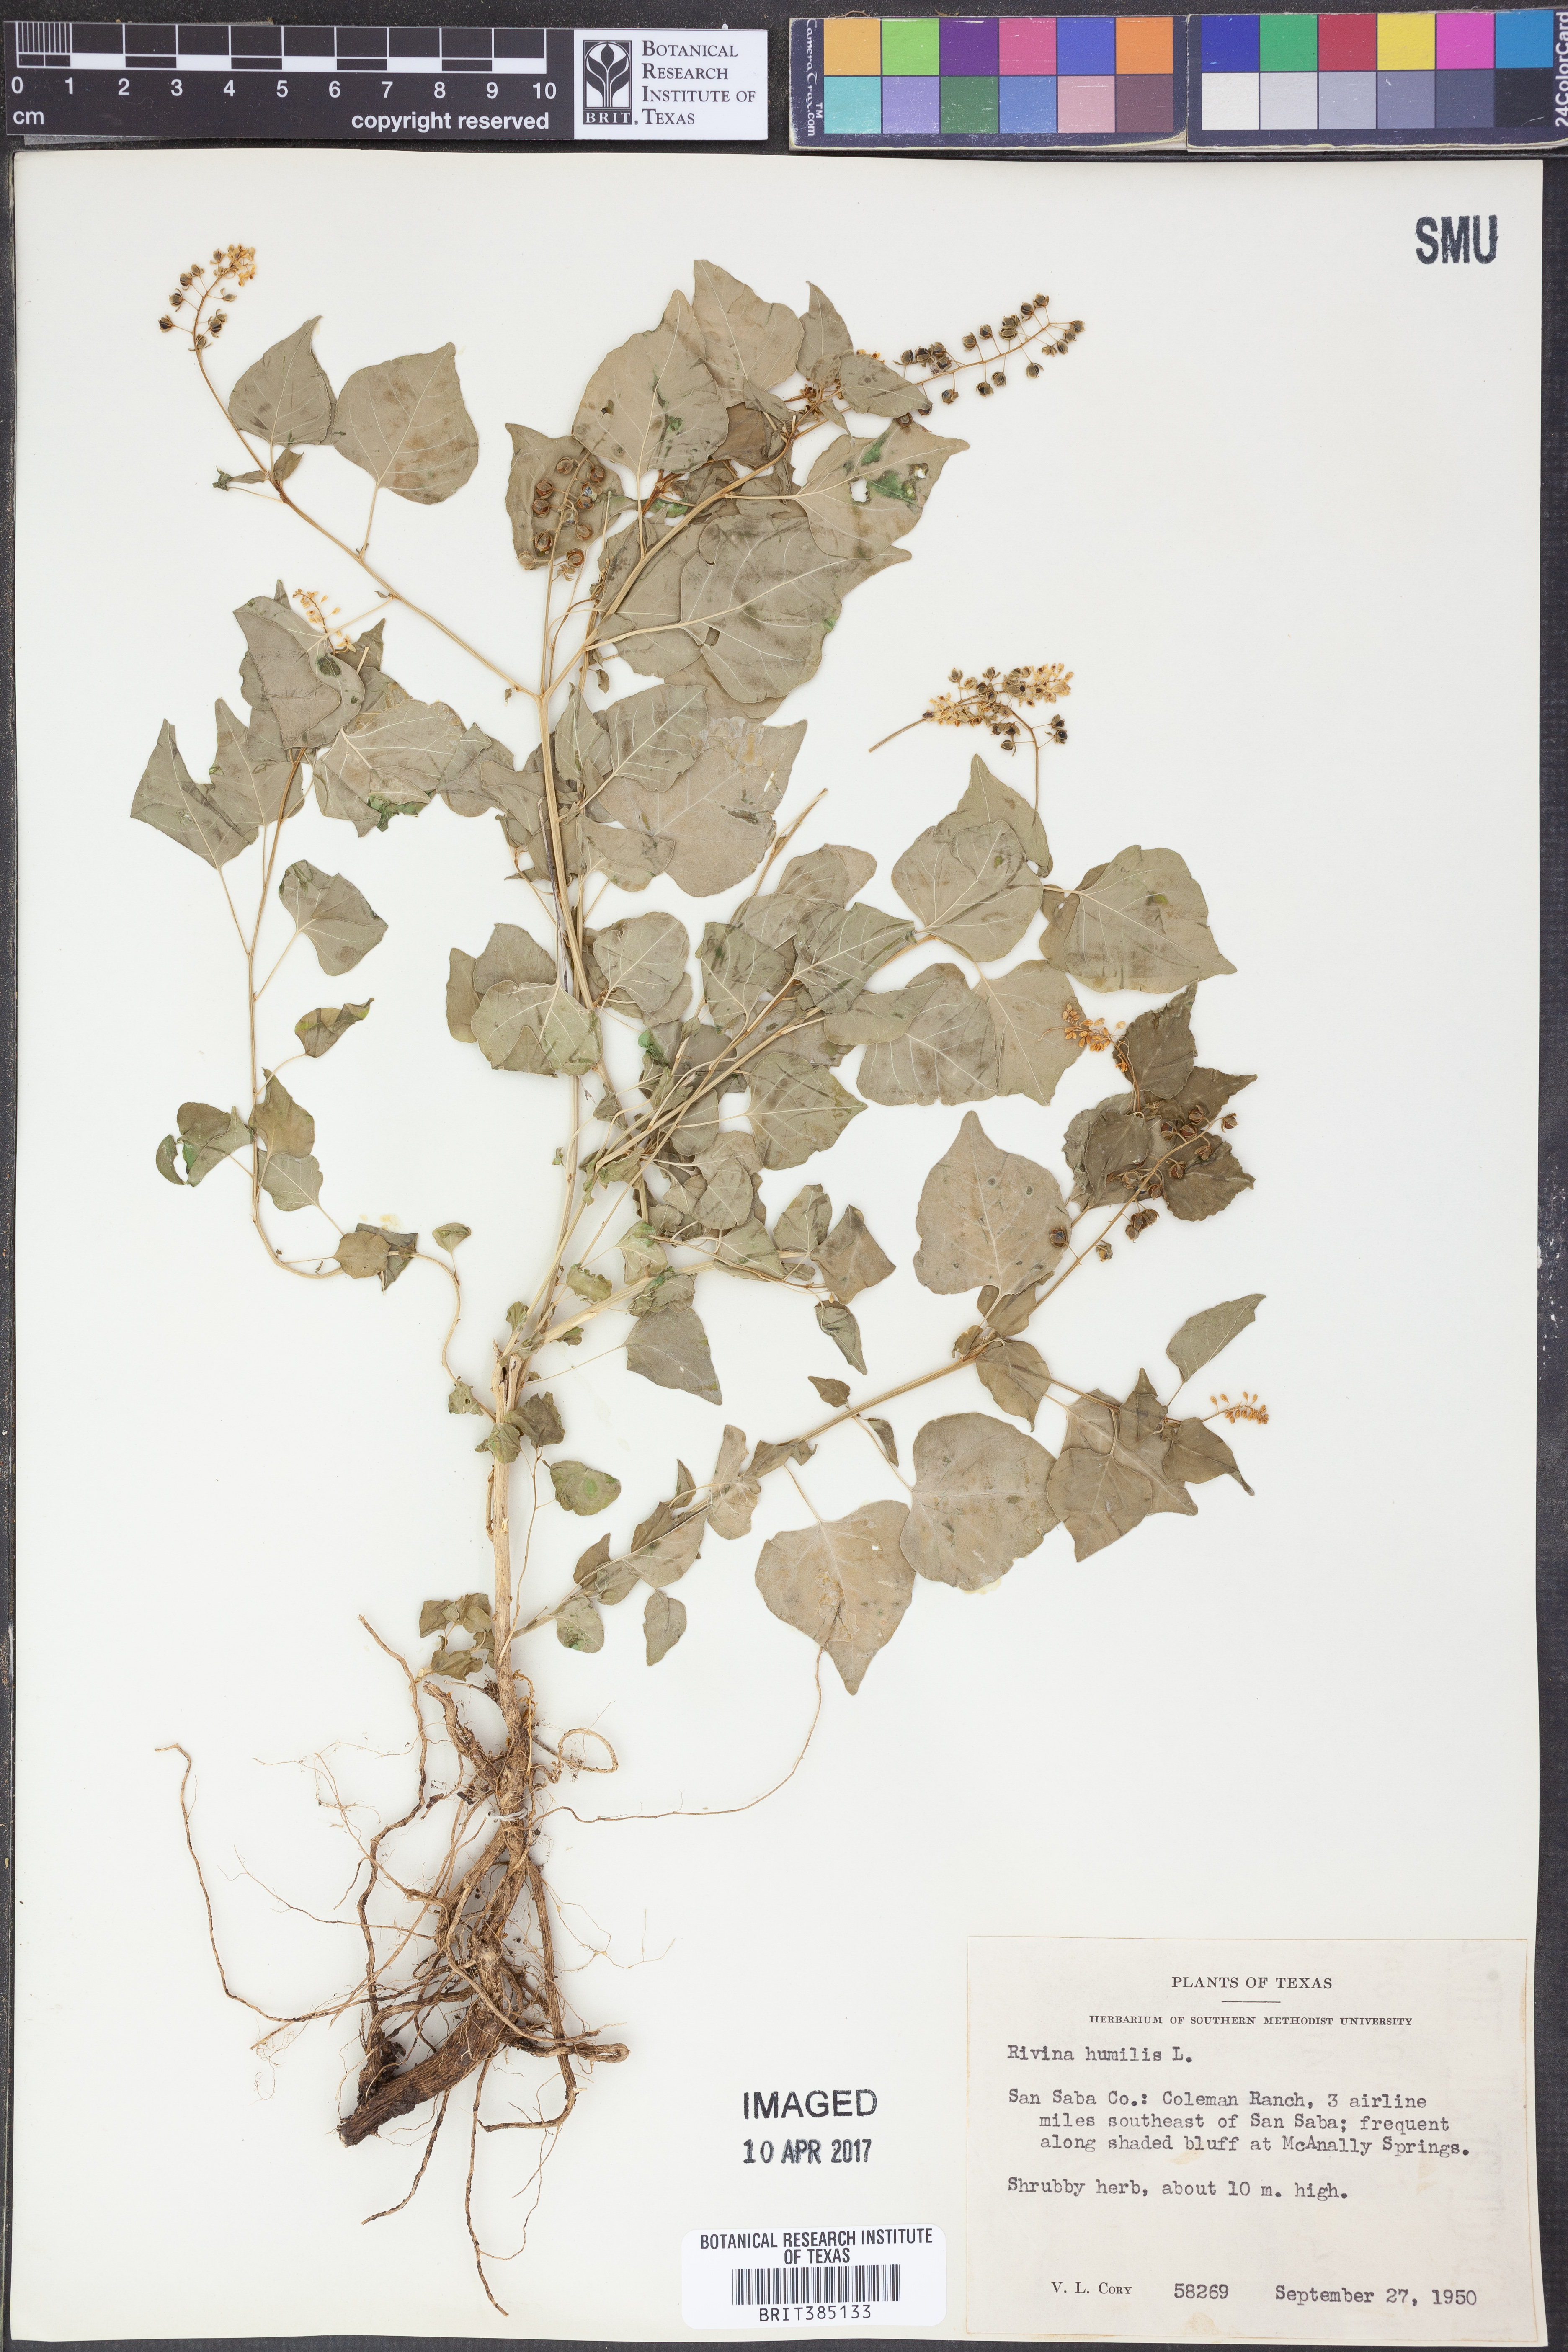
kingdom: Plantae
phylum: Tracheophyta
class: Magnoliopsida
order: Caryophyllales
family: Phytolaccaceae
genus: Rivina
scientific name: Rivina humilis
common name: Rougeplant
